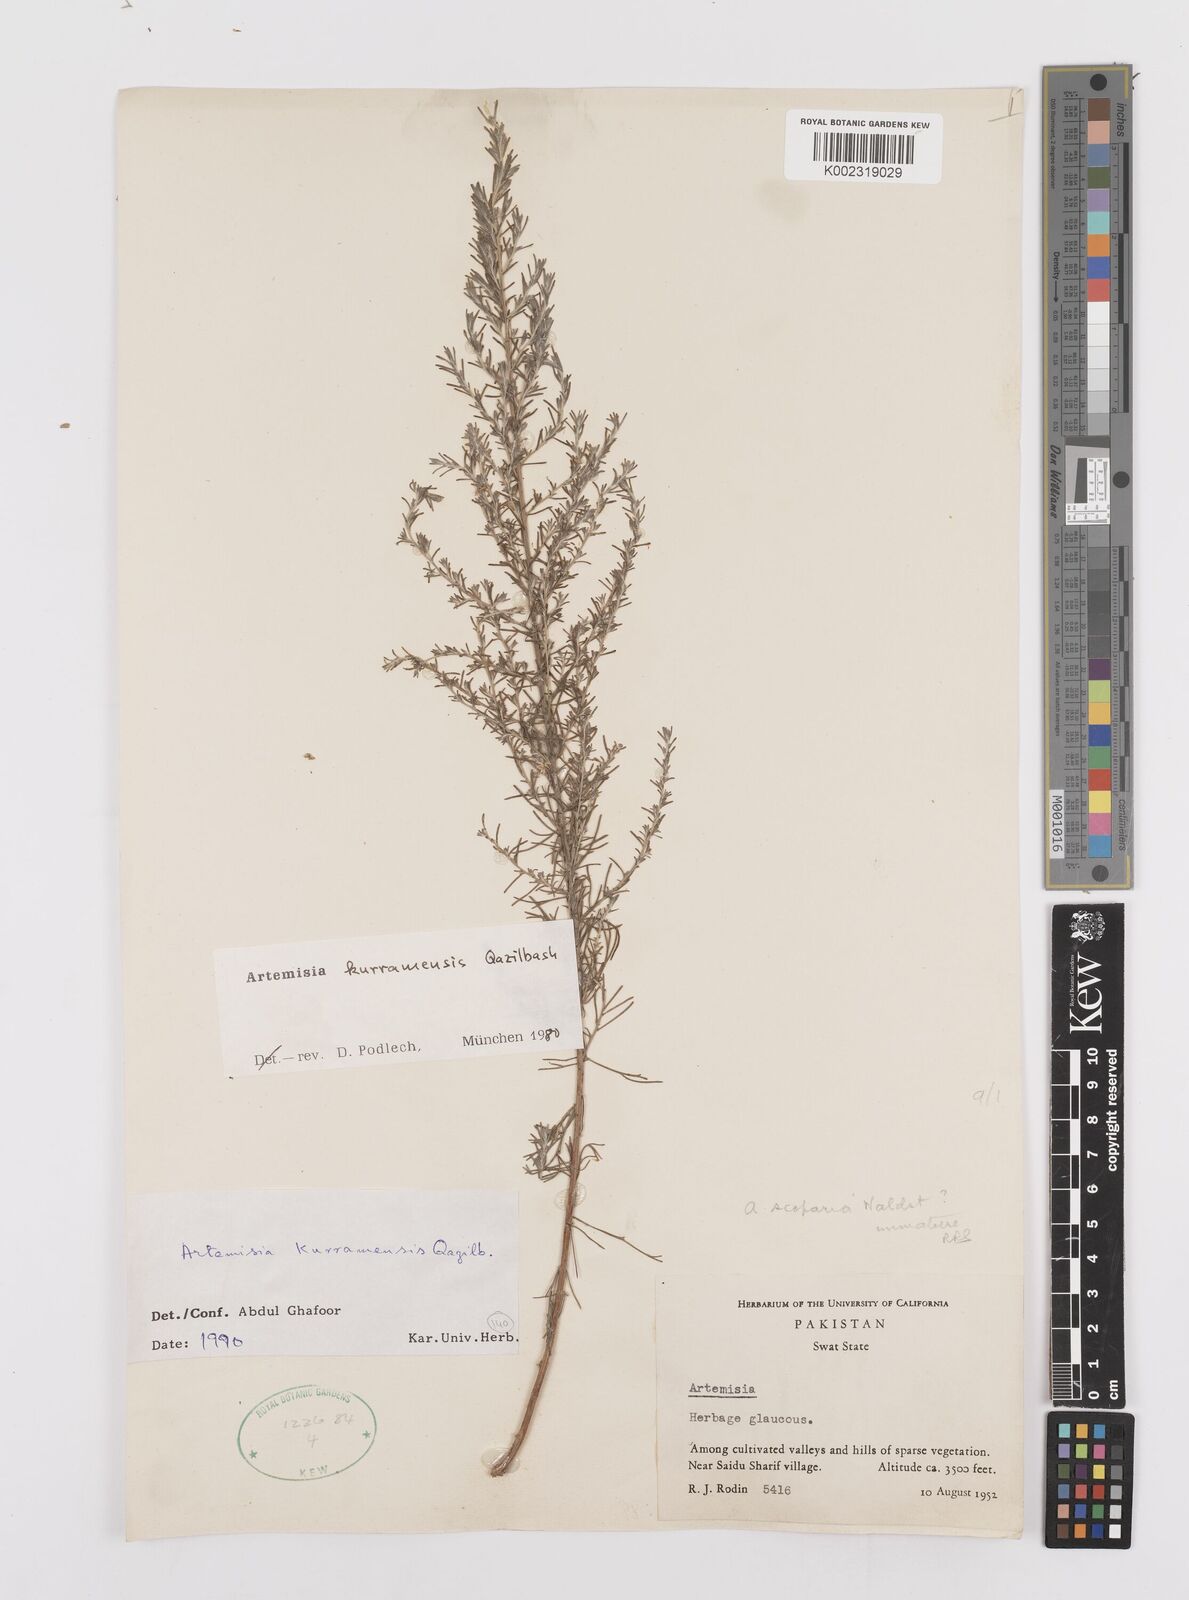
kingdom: Plantae
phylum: Tracheophyta
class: Magnoliopsida
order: Asterales
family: Asteraceae
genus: Artemisia
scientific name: Artemisia kurramensis
